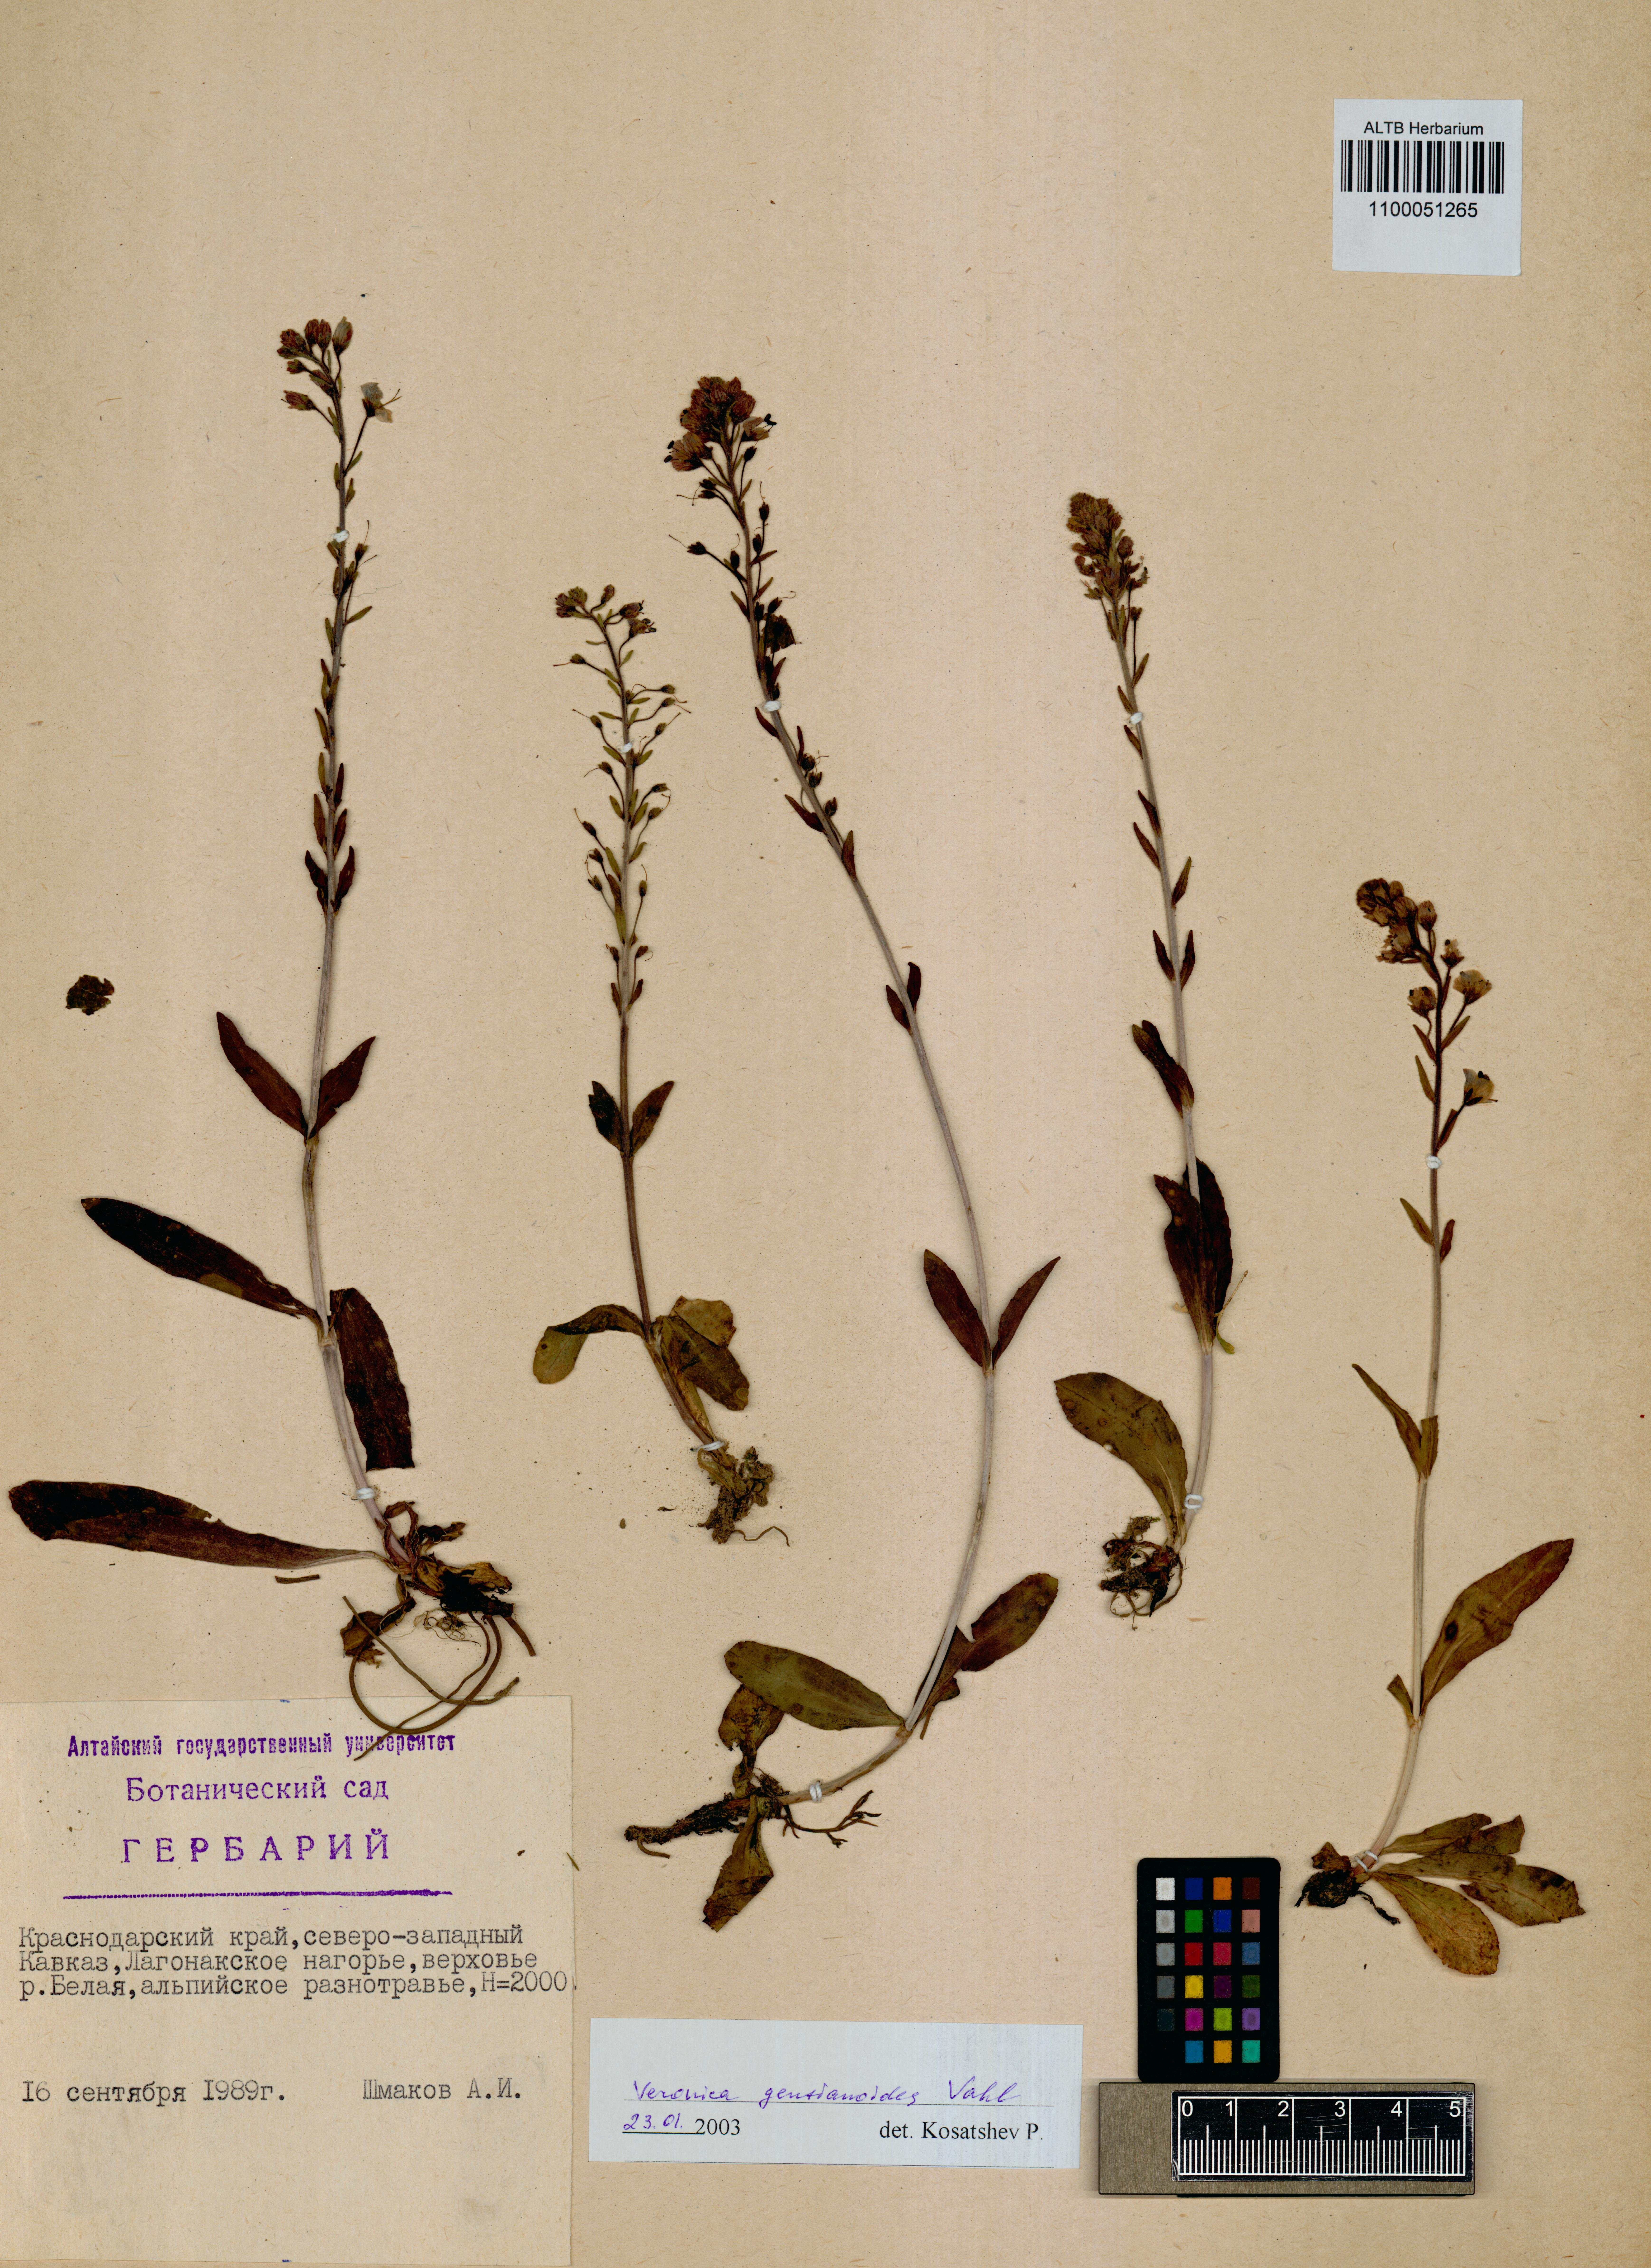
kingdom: Plantae
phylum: Tracheophyta
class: Magnoliopsida
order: Lamiales
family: Plantaginaceae
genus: Veronica
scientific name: Veronica gentianoides
